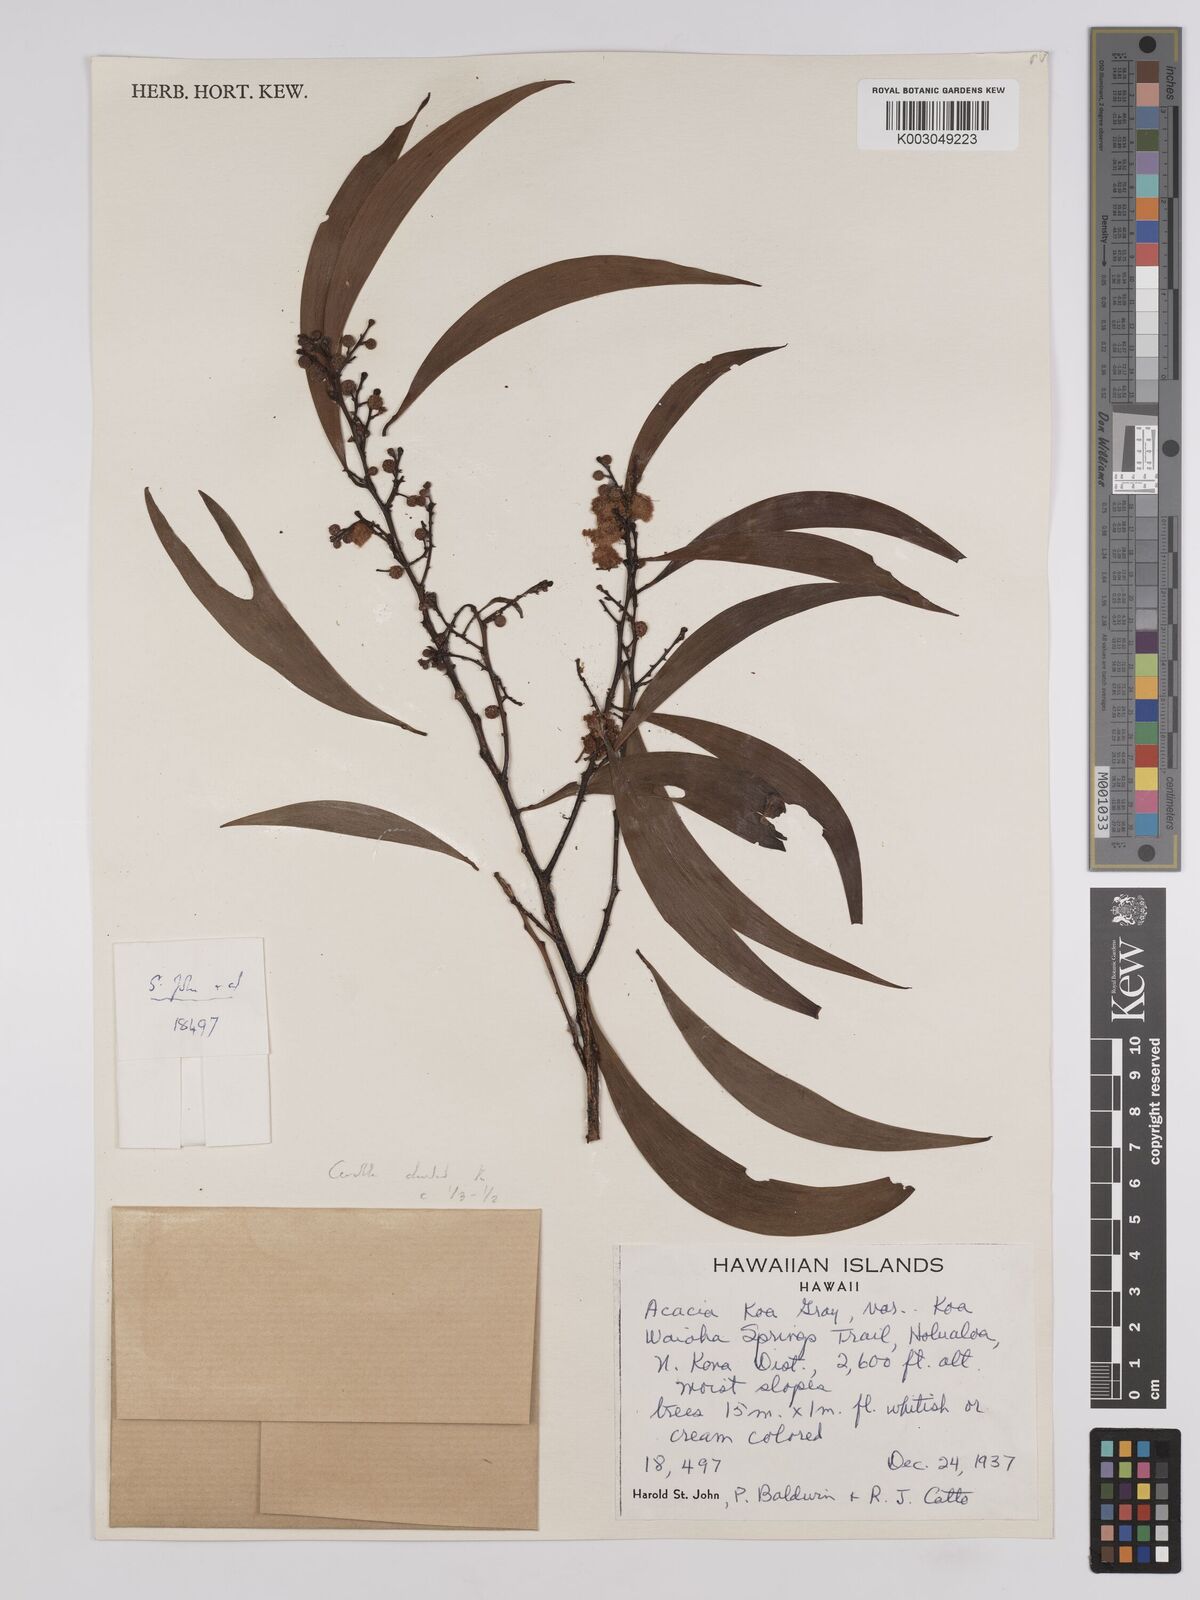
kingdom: Plantae
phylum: Tracheophyta
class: Magnoliopsida
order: Fabales
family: Fabaceae
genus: Acacia
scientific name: Acacia koa
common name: Gray koa
